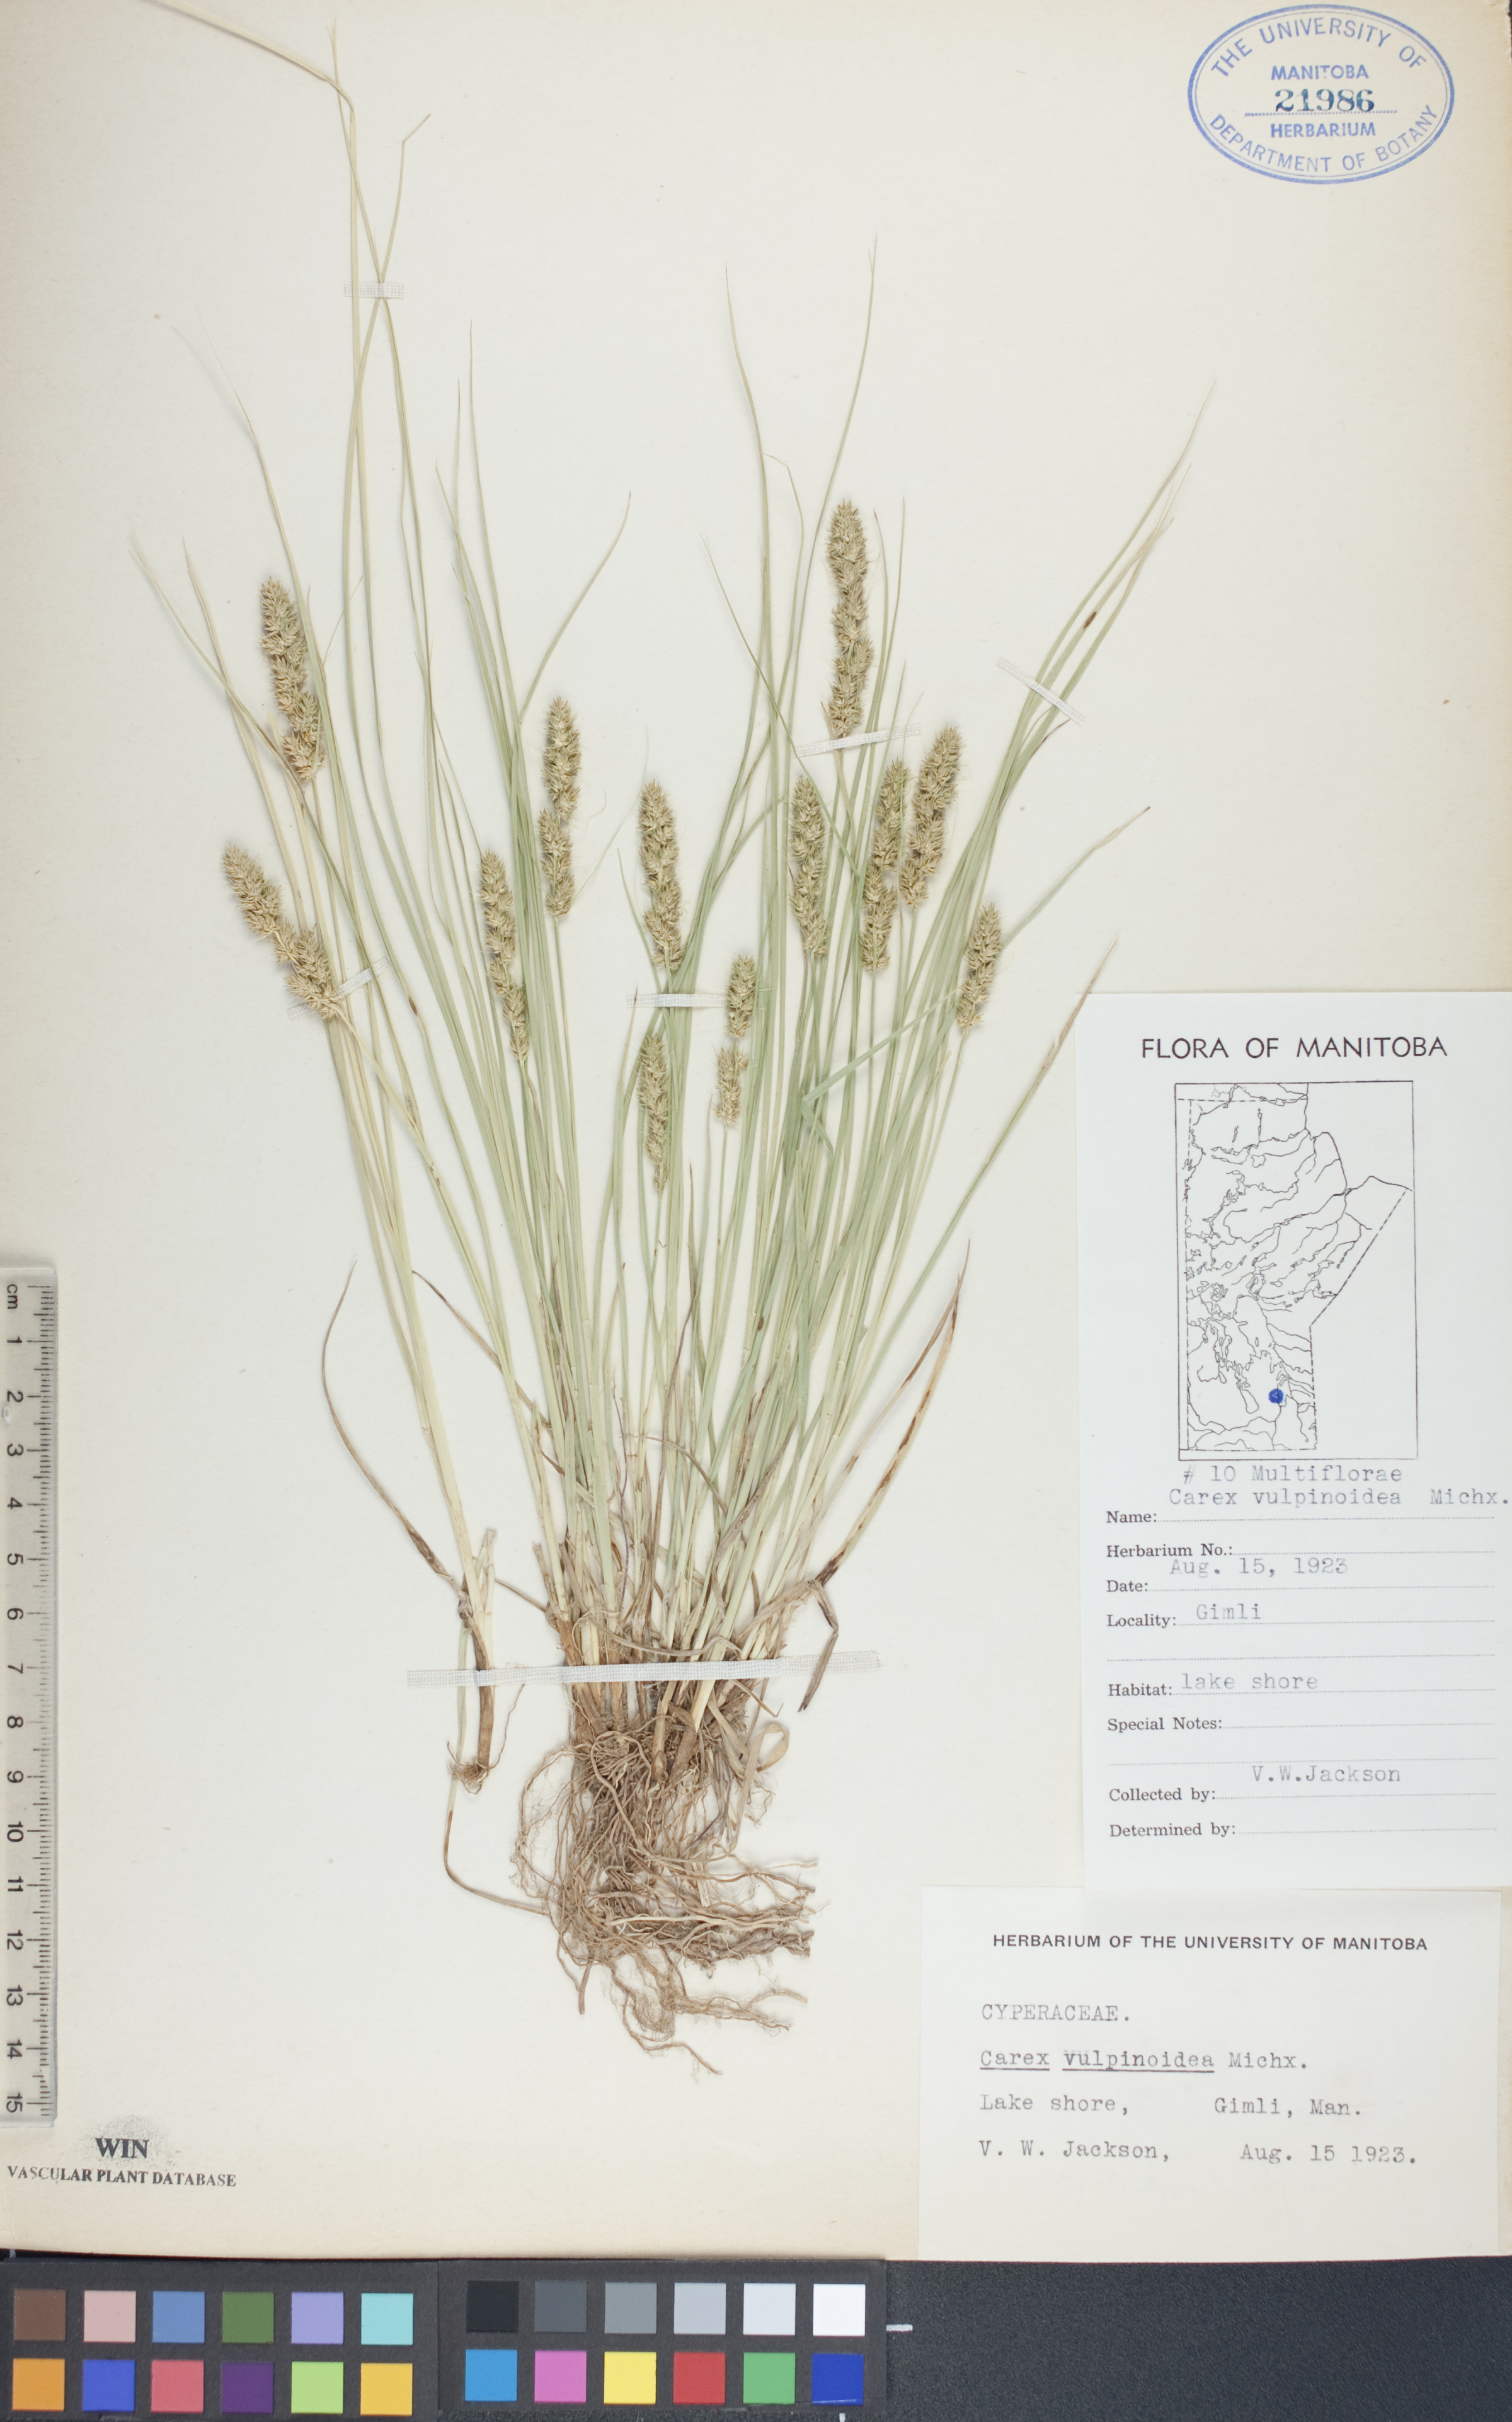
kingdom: Plantae
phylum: Tracheophyta
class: Liliopsida
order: Poales
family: Cyperaceae
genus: Carex
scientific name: Carex vulpinoidea
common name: American fox-sedge
